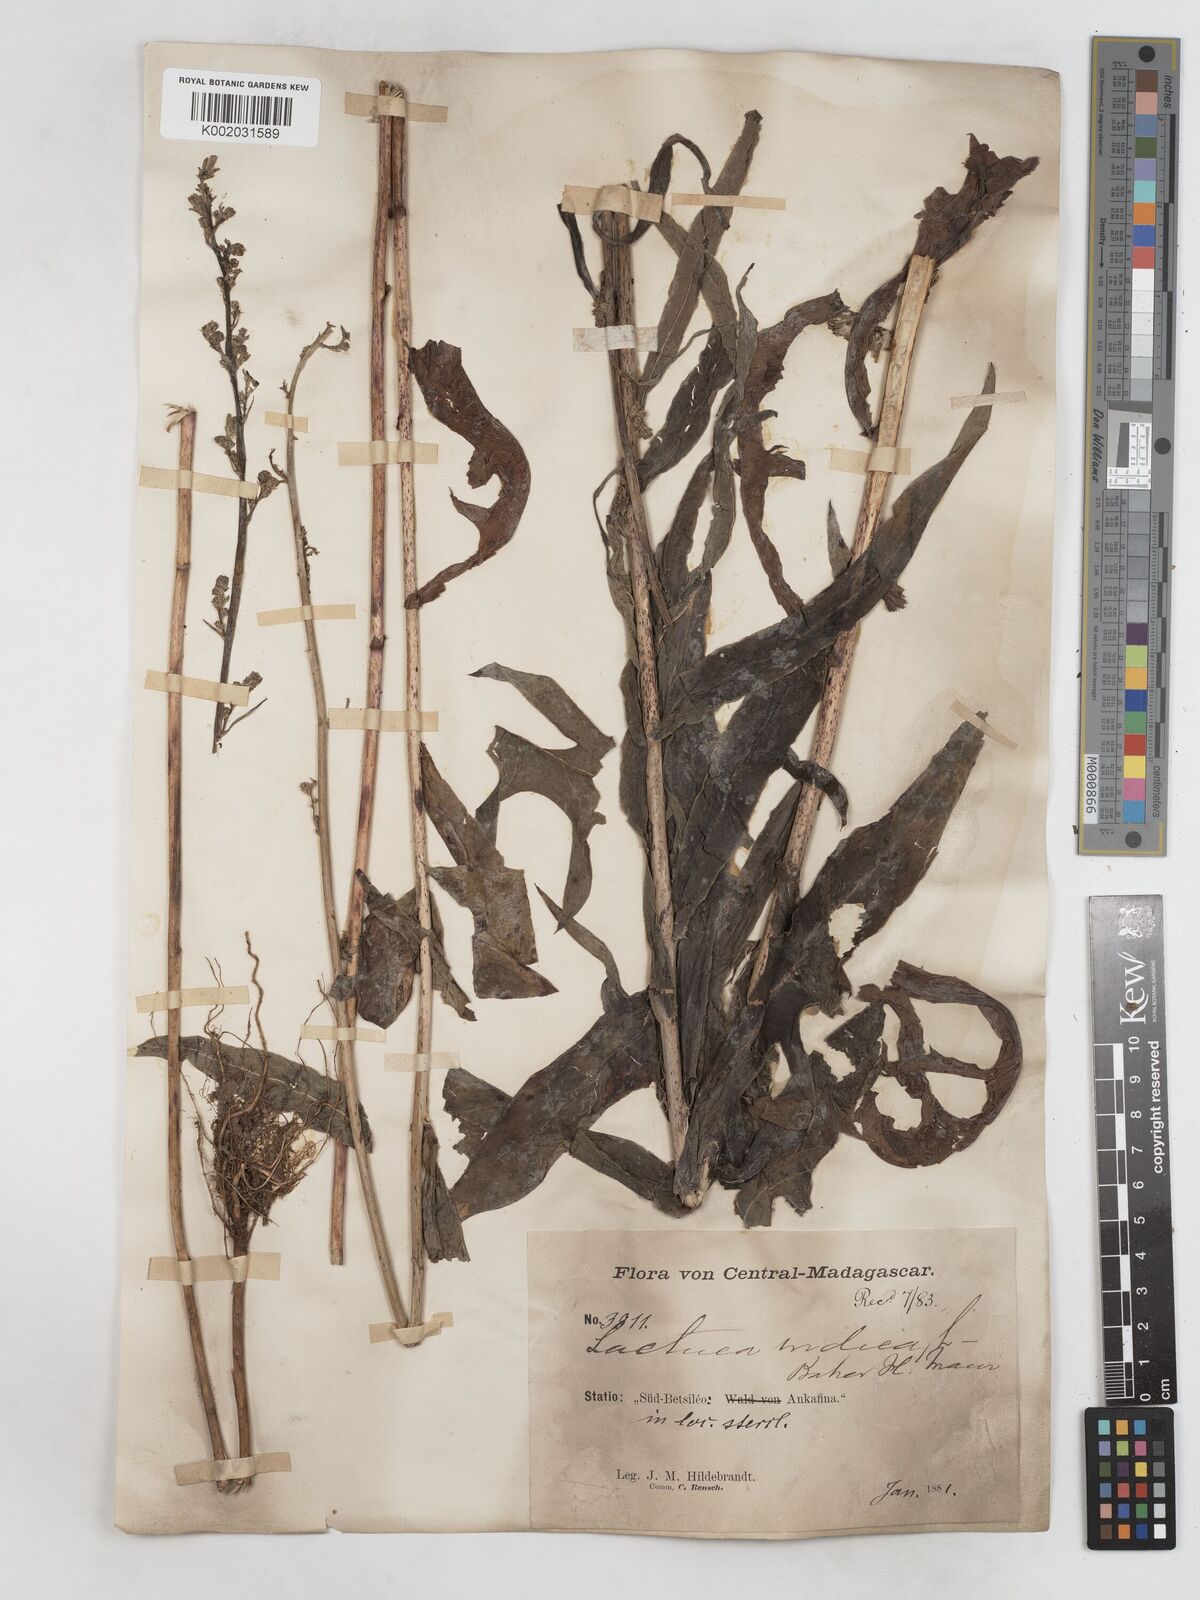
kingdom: Plantae
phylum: Tracheophyta
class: Magnoliopsida
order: Asterales
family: Asteraceae
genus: Lactuca
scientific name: Lactuca
